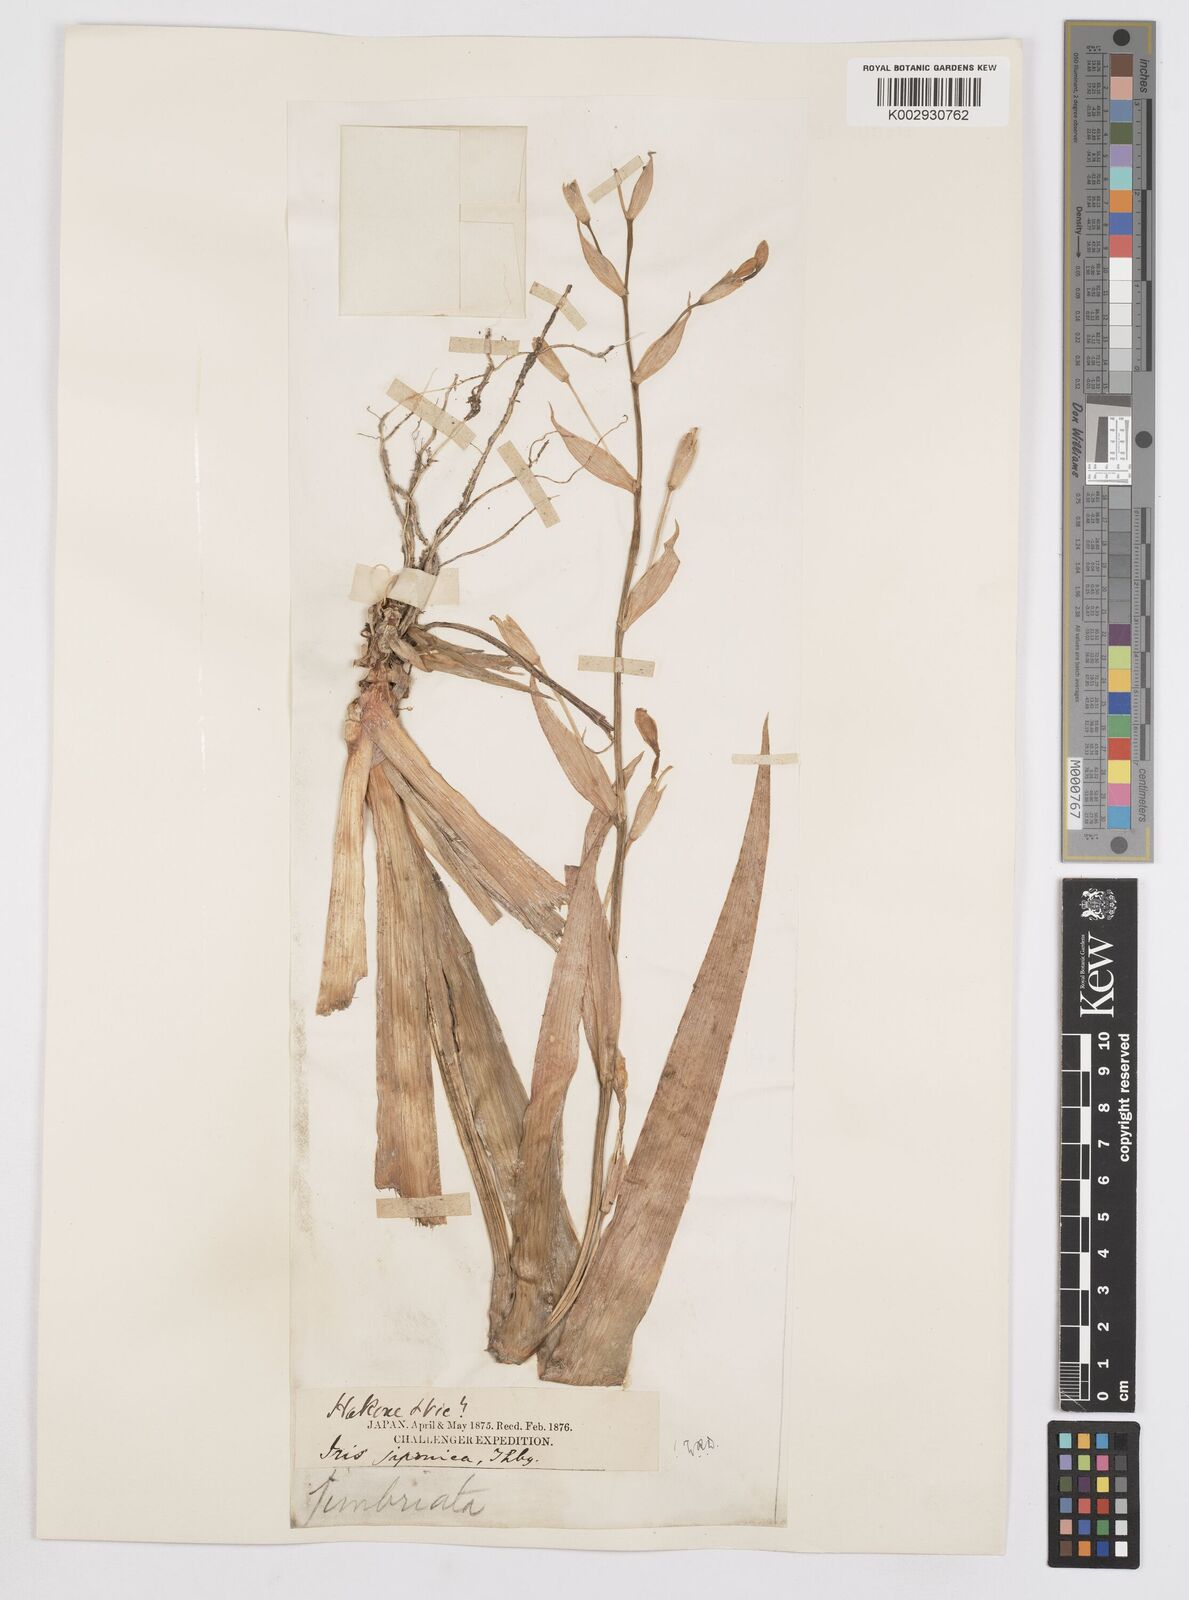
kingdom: Plantae
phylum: Tracheophyta
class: Liliopsida
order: Asparagales
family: Iridaceae
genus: Iris
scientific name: Iris japonica
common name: Butterfly-flower
